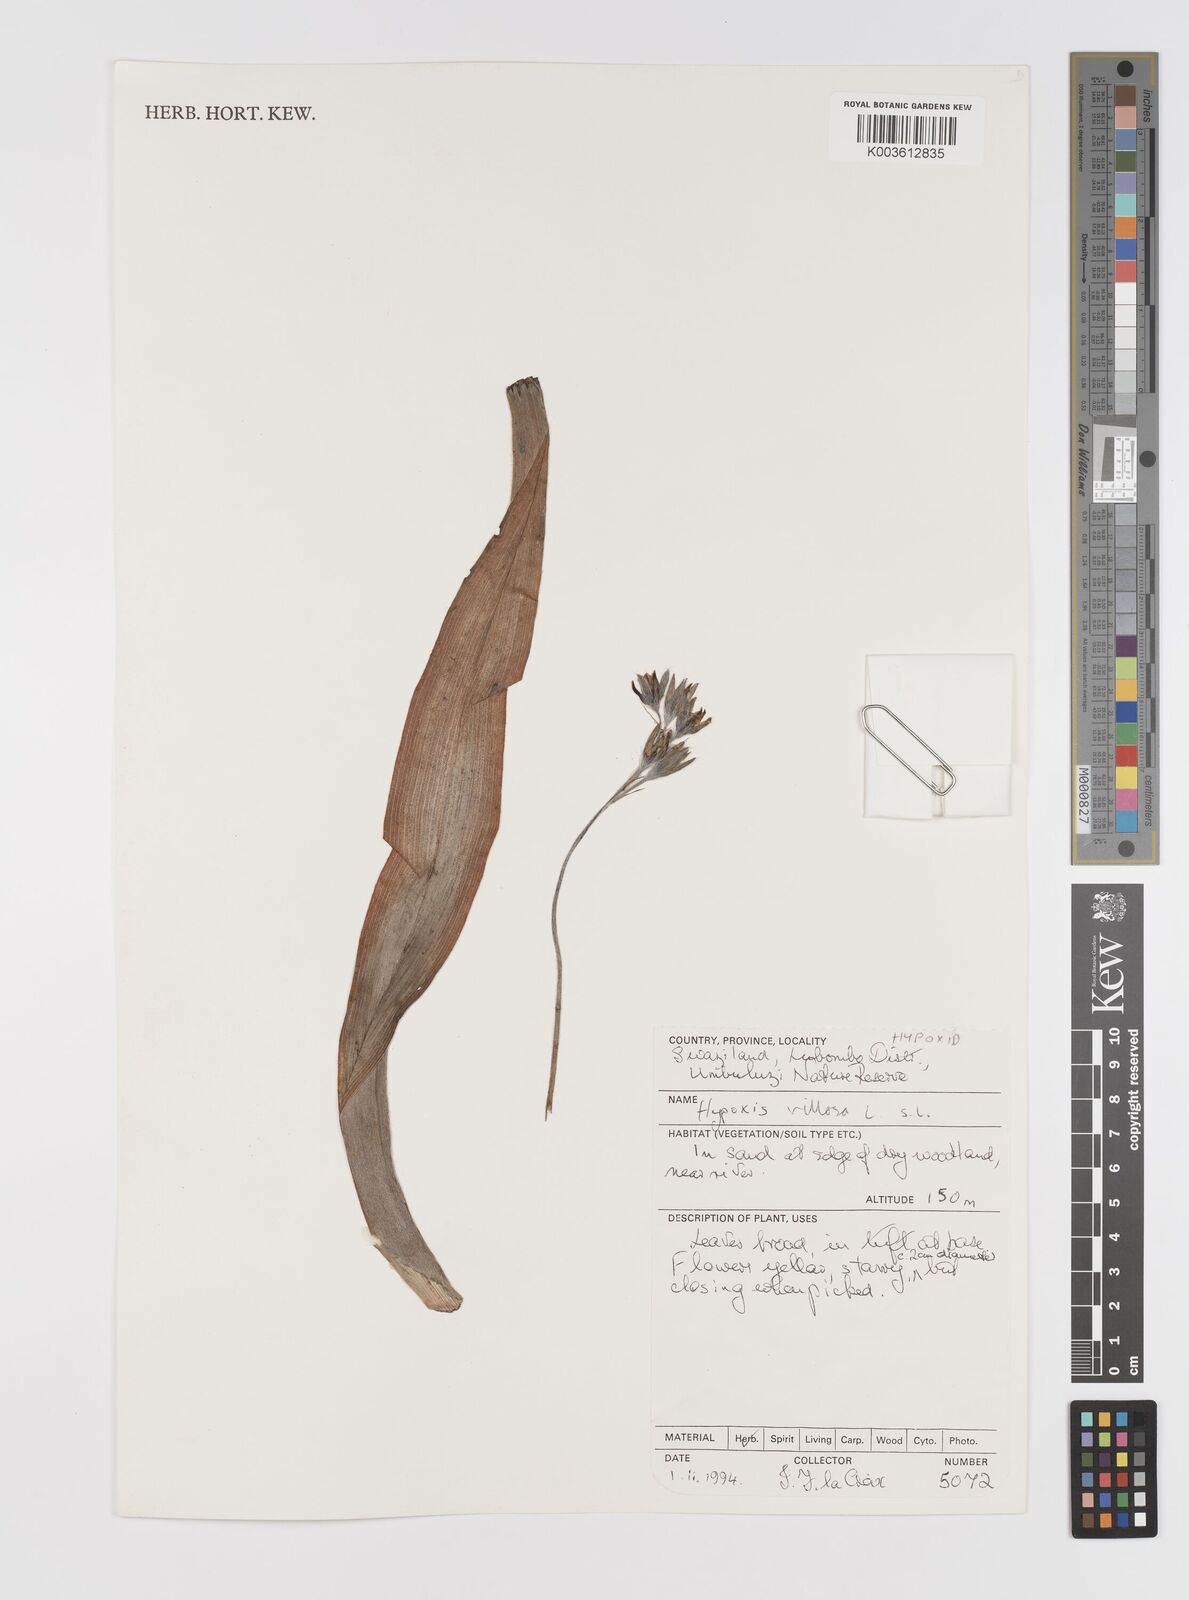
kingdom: Plantae
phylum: Tracheophyta
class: Liliopsida
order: Asparagales
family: Hypoxidaceae
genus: Hypoxis
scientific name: Hypoxis villosa
